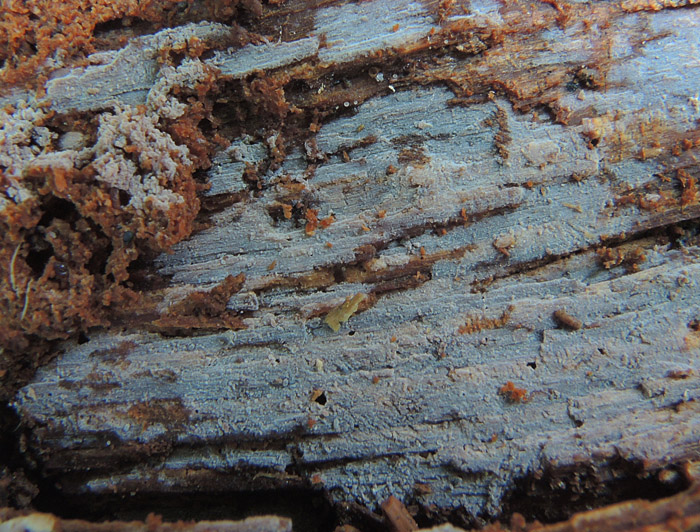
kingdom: Fungi
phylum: Basidiomycota
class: Agaricomycetes
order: Hymenochaetales
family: Repetobasidiaceae
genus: Skvortzovia
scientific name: Skvortzovia furfuracea
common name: tynd vokstand
